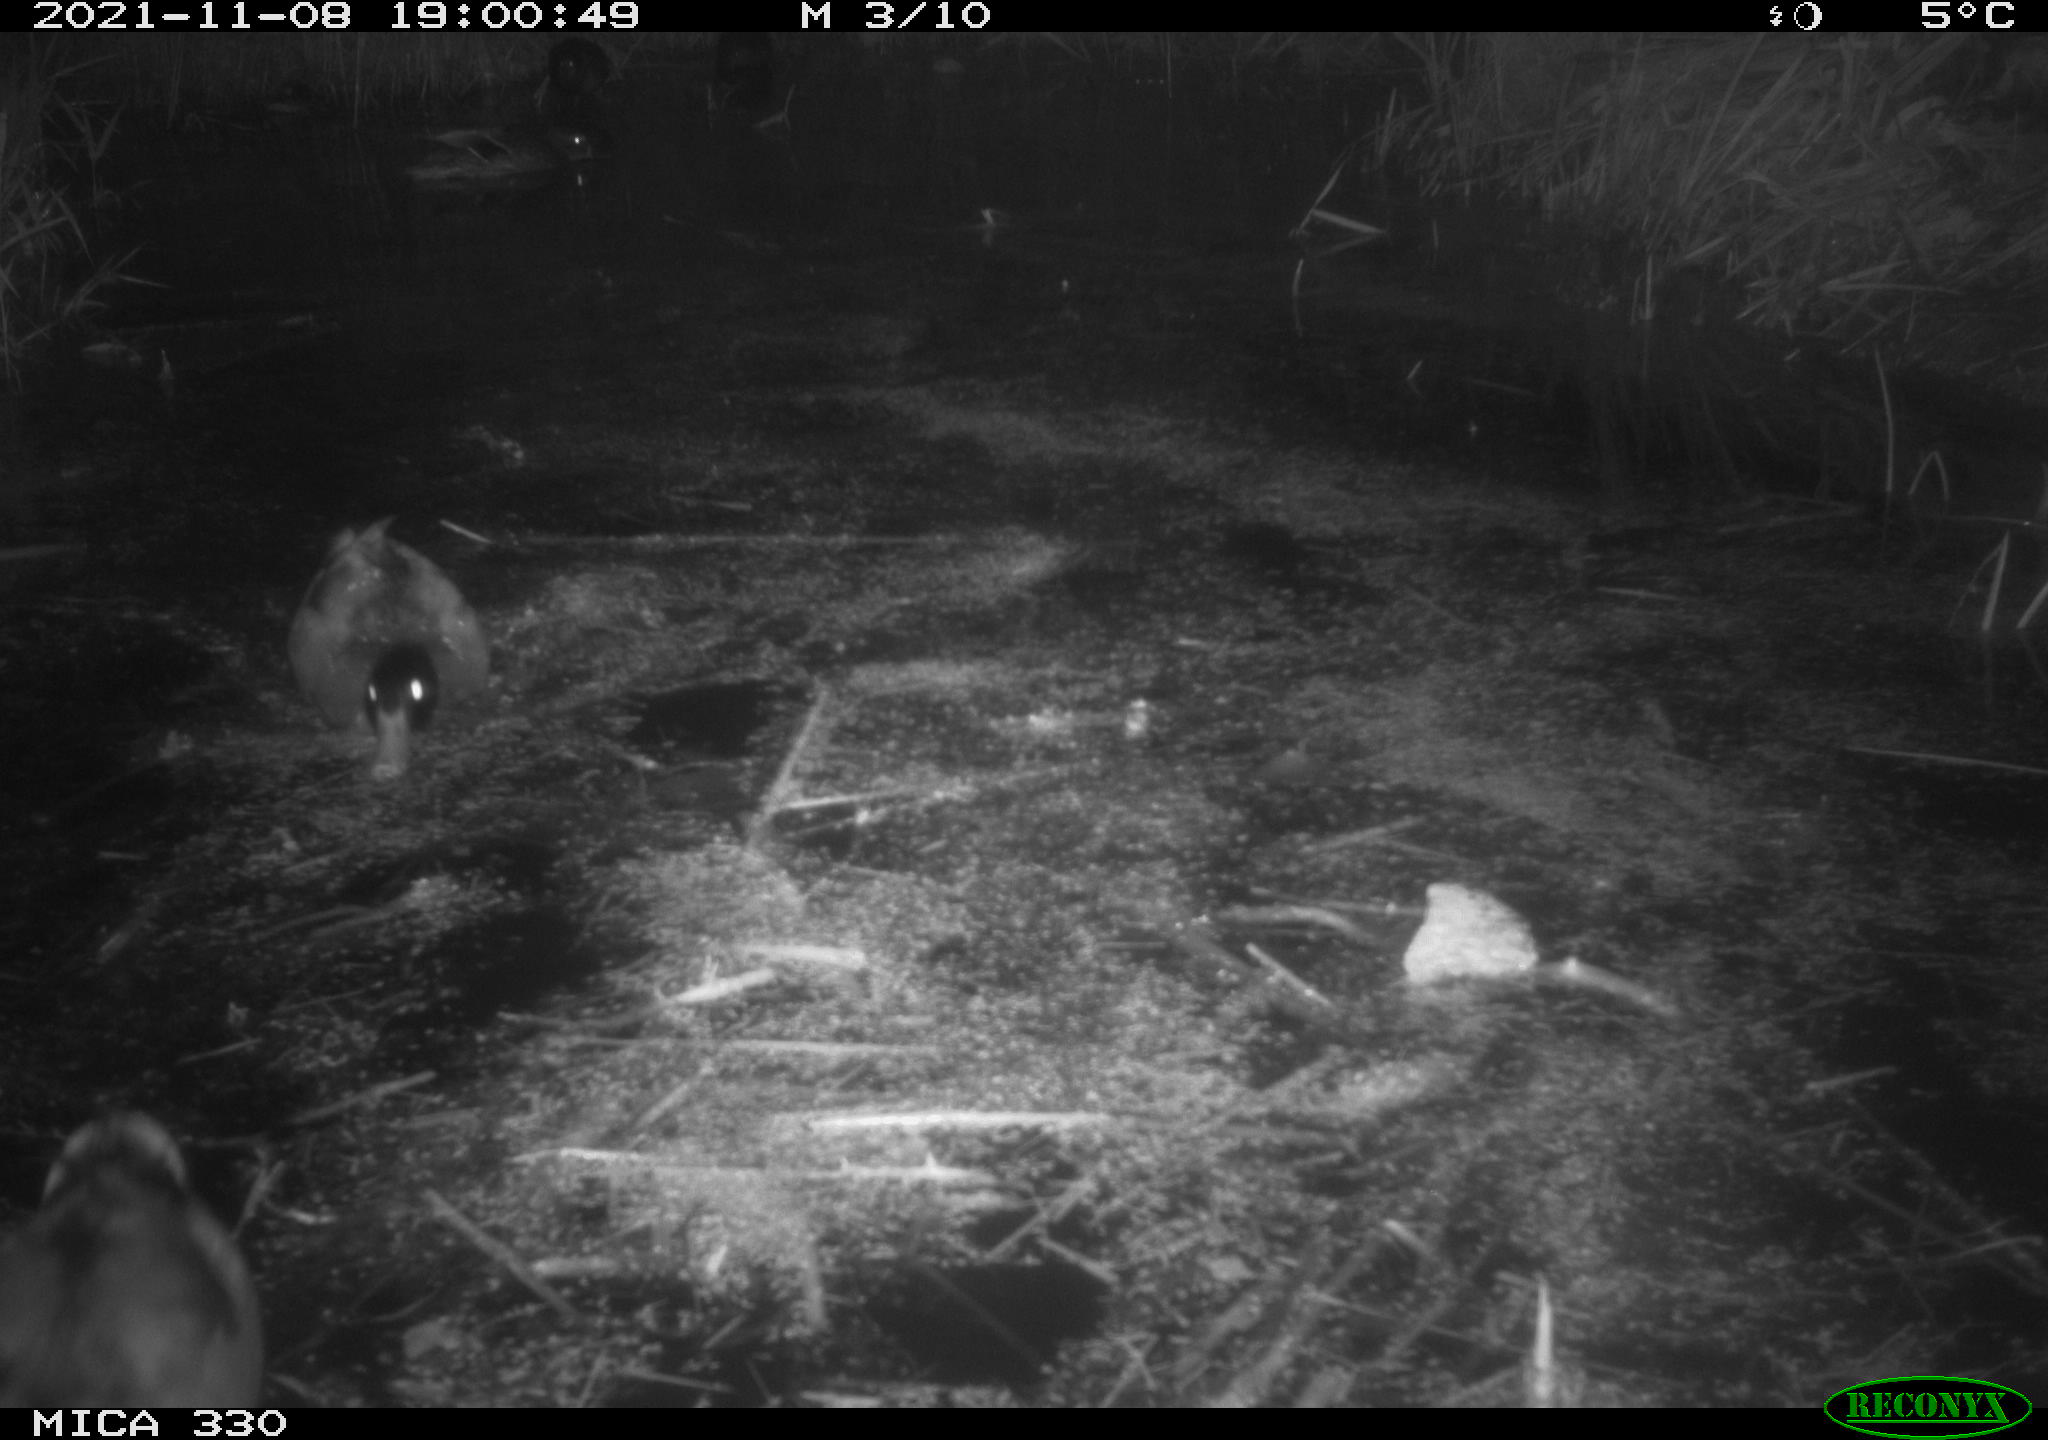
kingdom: Animalia
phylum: Chordata
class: Aves
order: Anseriformes
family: Anatidae
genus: Anas
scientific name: Anas platyrhynchos
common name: Mallard
